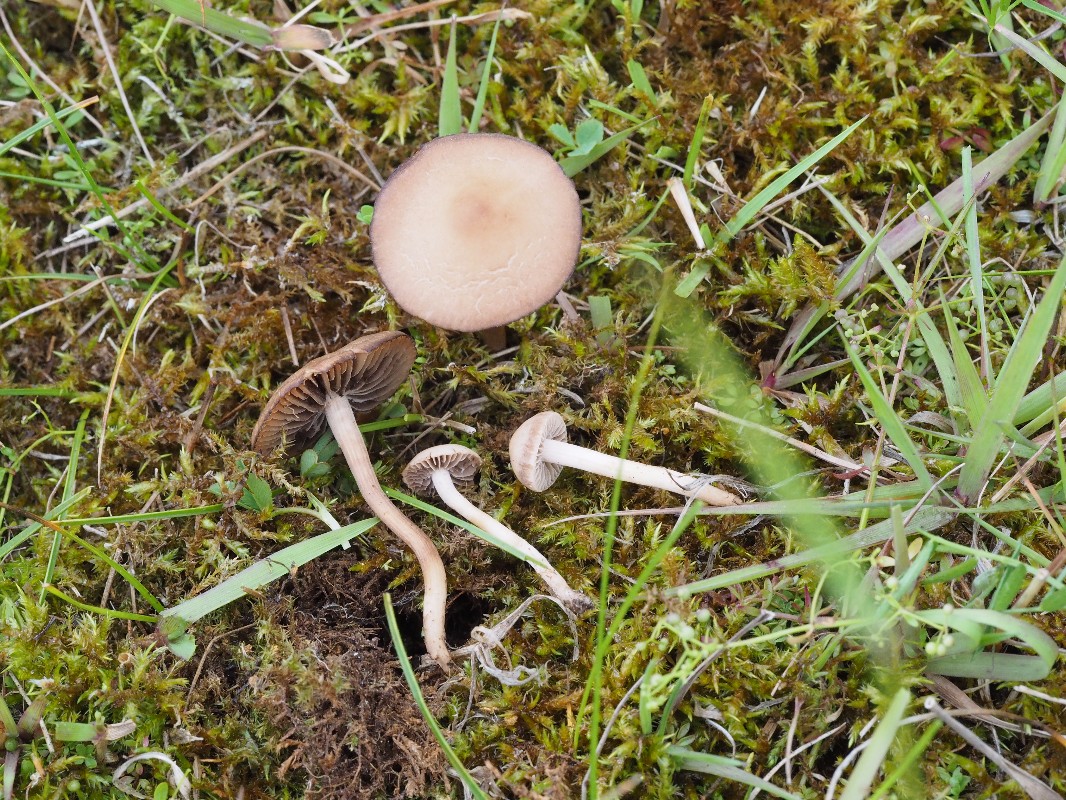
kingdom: Fungi
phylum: Basidiomycota
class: Agaricomycetes
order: Agaricales
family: Bolbitiaceae
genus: Panaeolina
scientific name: Panaeolina foenisecii
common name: høslætsvamp
